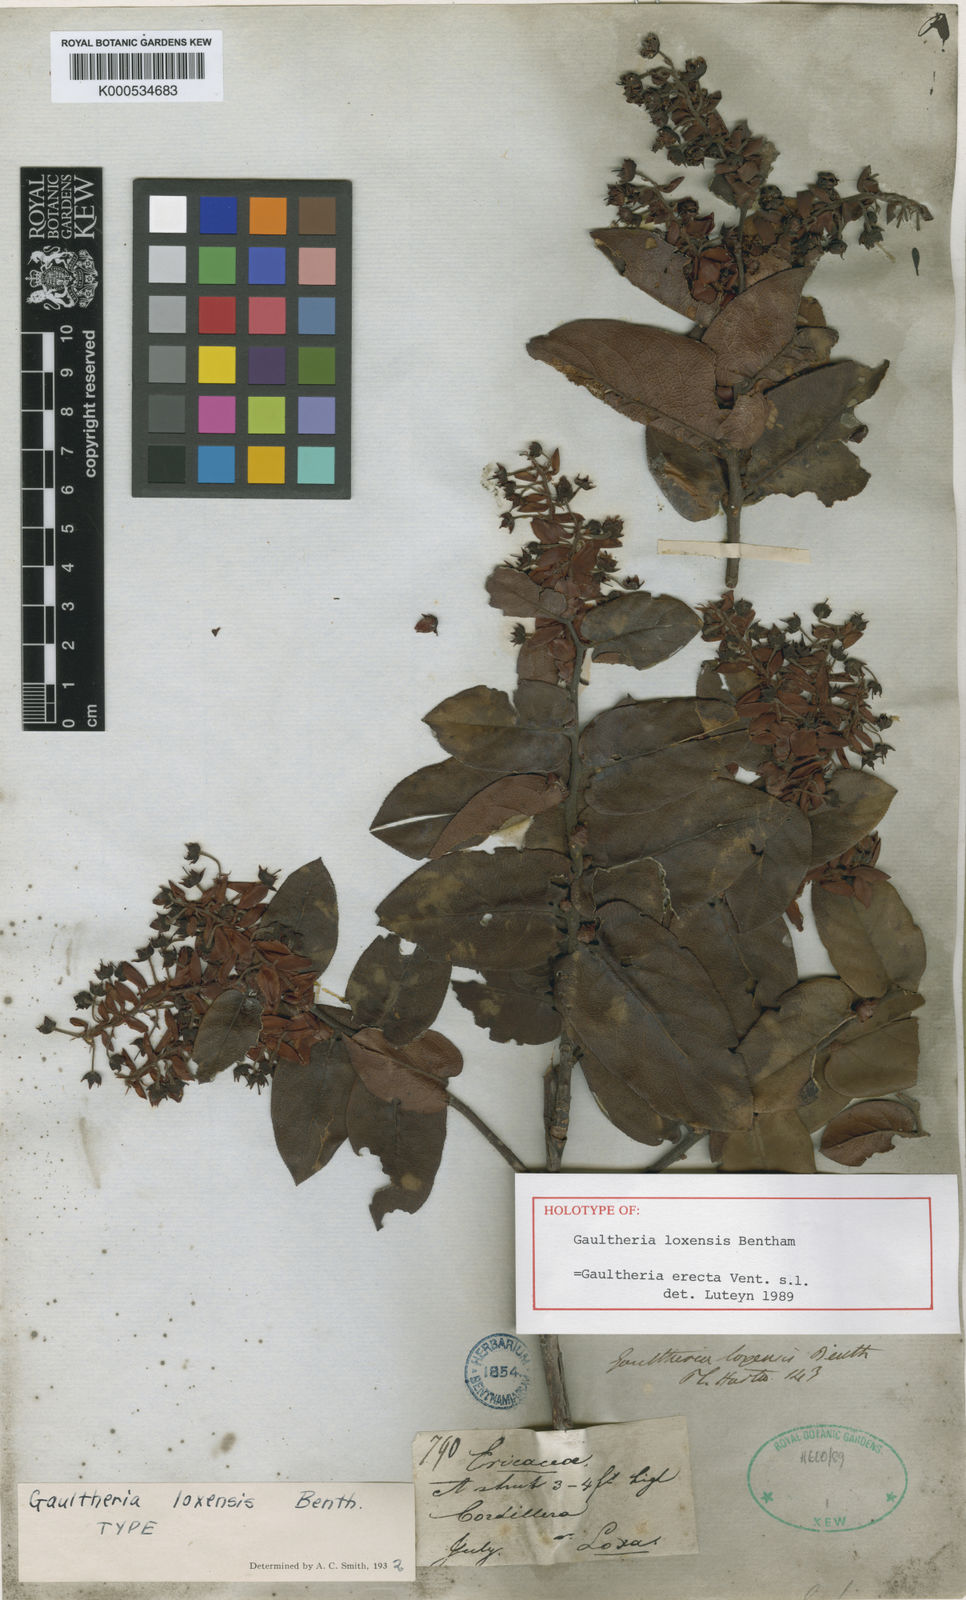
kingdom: Plantae
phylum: Tracheophyta
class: Magnoliopsida
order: Ericales
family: Ericaceae
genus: Gaultheria
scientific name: Gaultheria erecta
